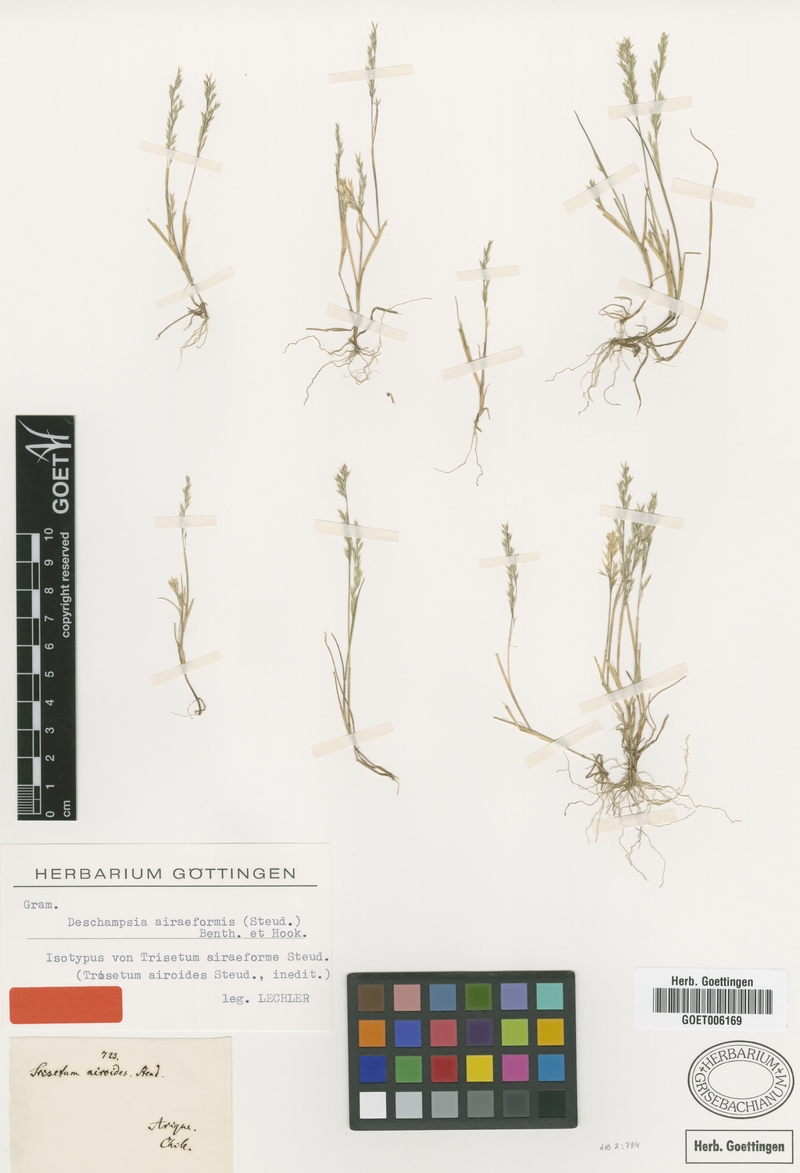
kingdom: Plantae
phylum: Tracheophyta
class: Liliopsida
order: Poales
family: Poaceae
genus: Deschampsia
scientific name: Deschampsia airiformis
